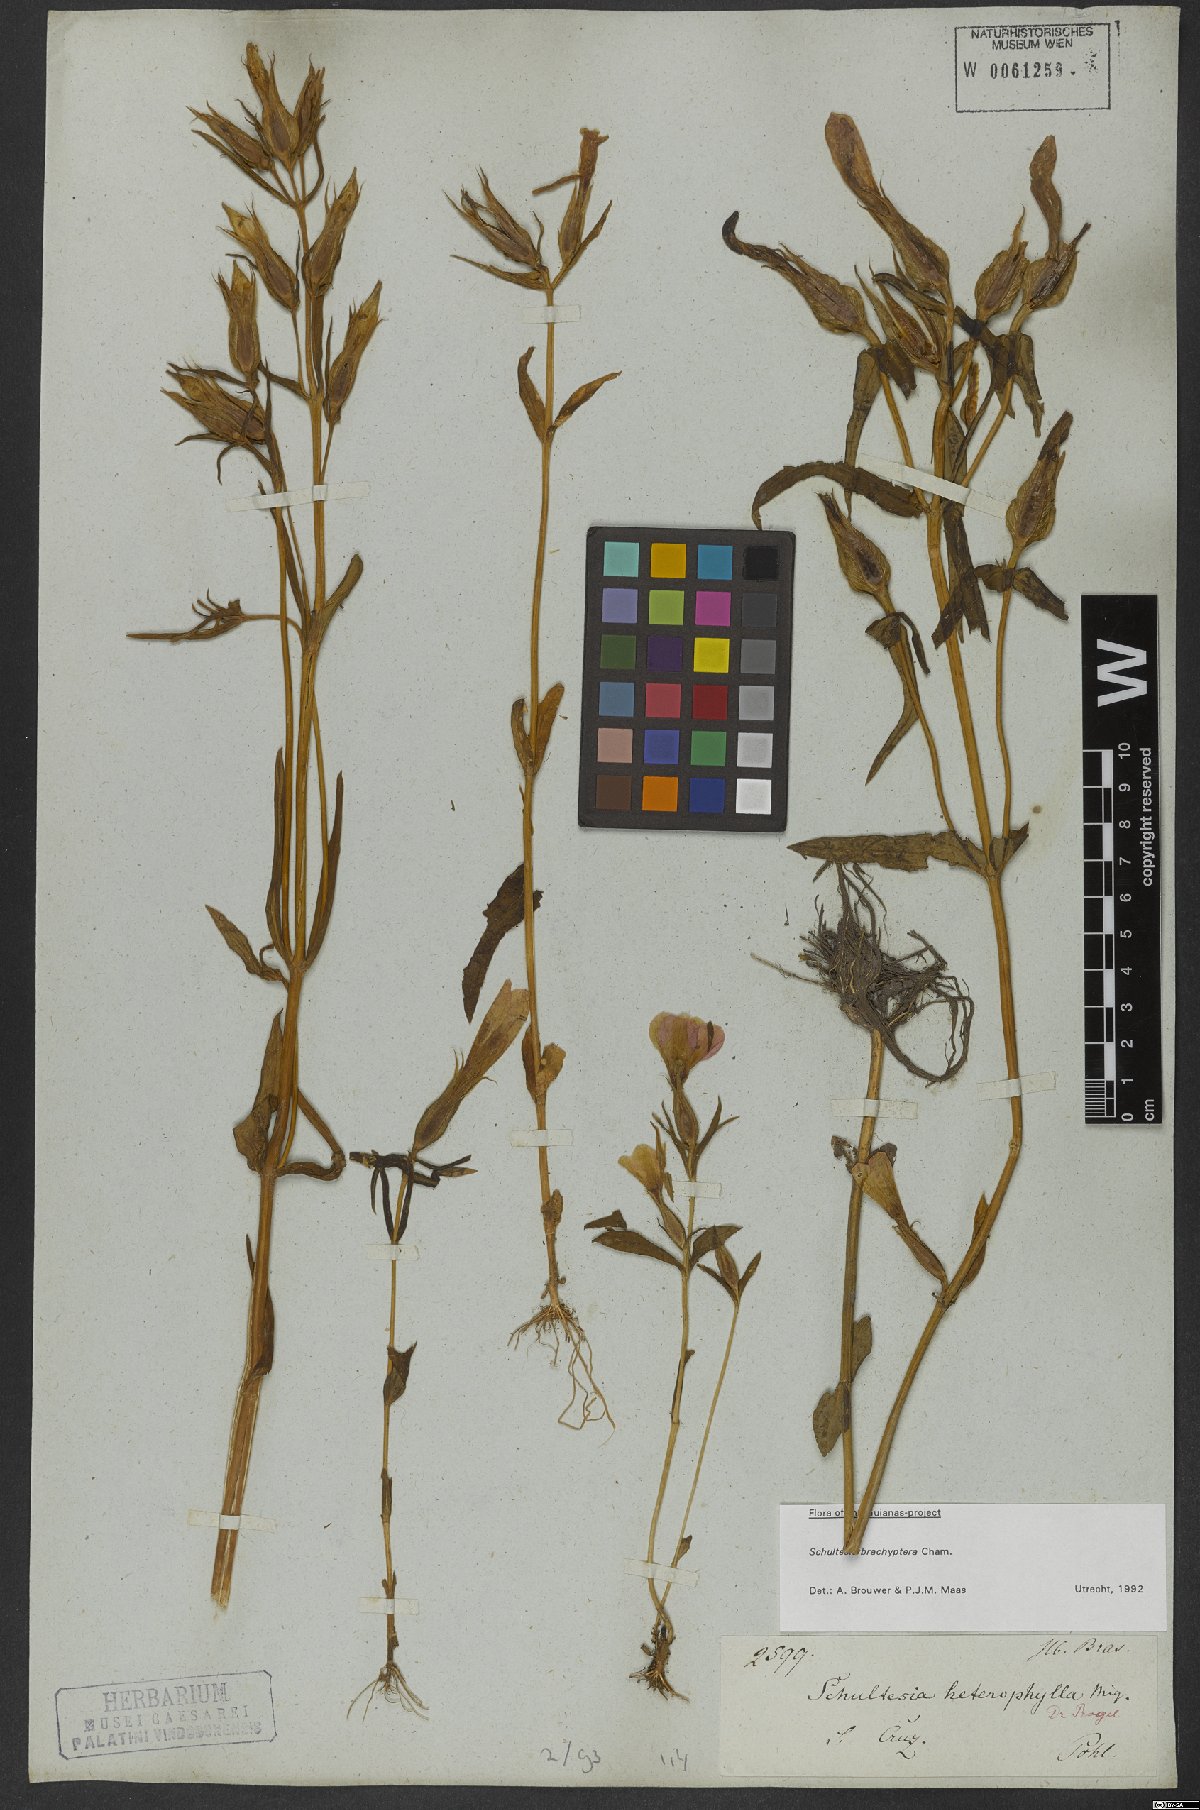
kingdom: Plantae
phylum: Tracheophyta
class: Magnoliopsida
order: Gentianales
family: Gentianaceae
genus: Schultesia
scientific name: Schultesia brachyptera
